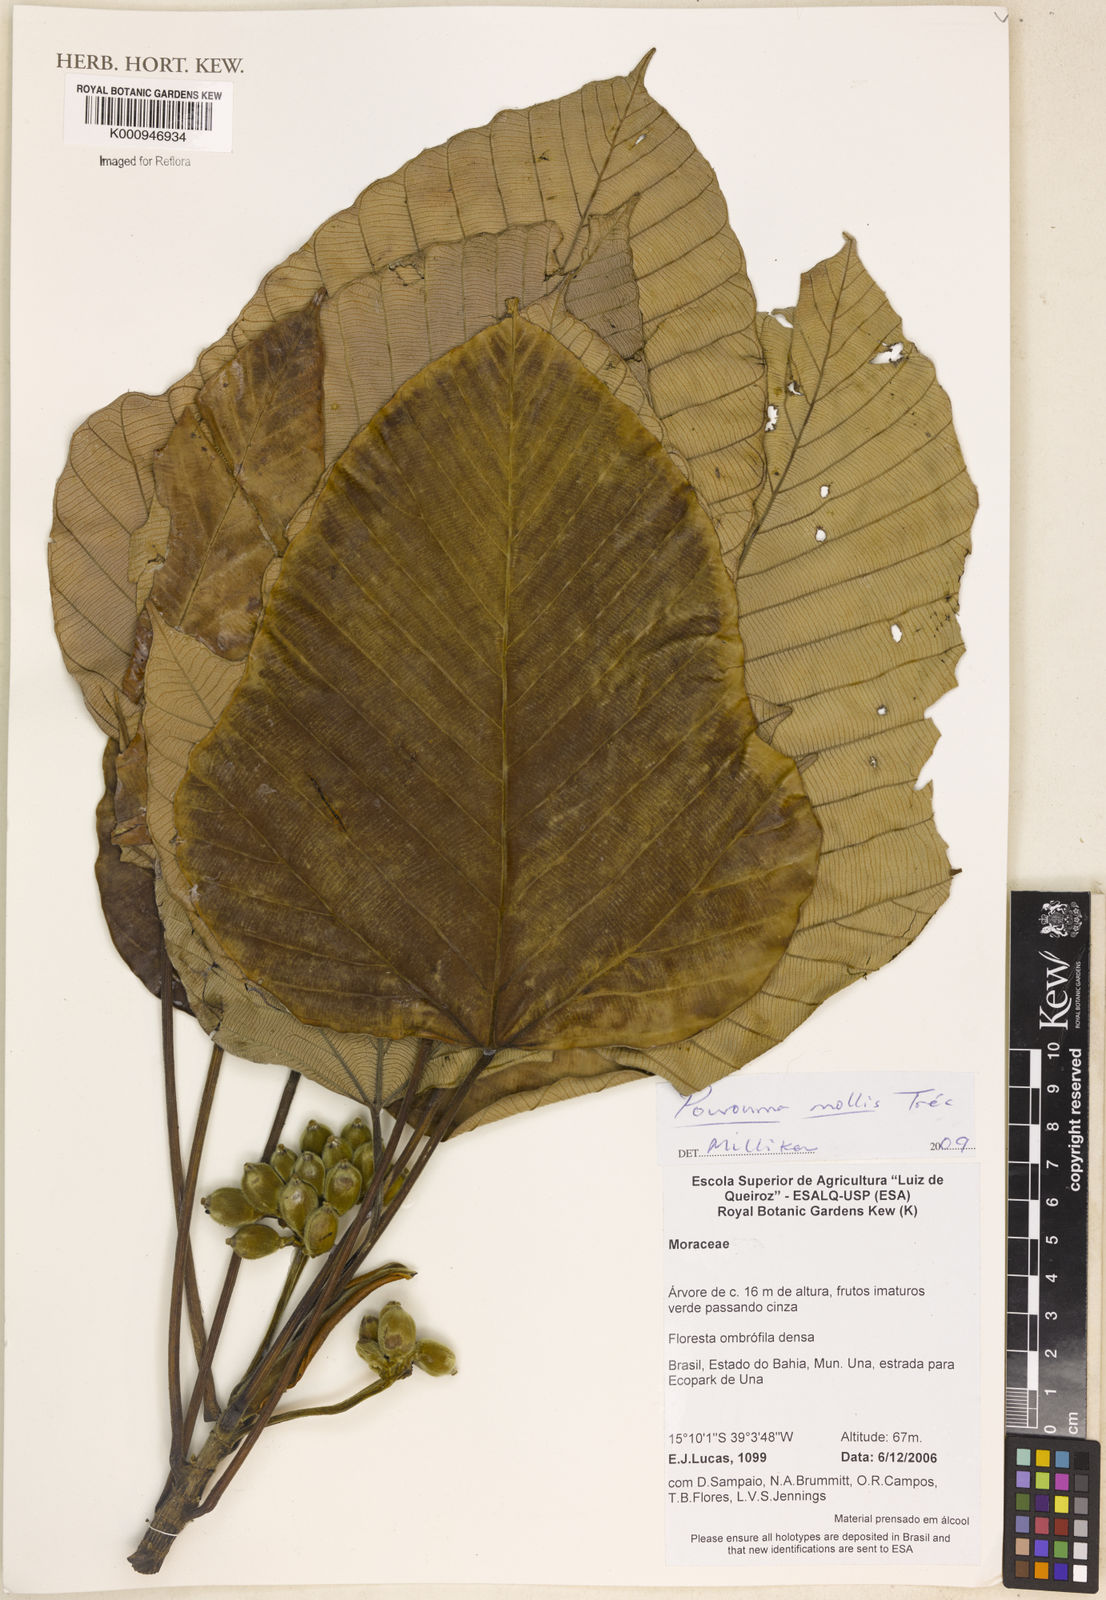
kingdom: Plantae
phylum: Tracheophyta
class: Magnoliopsida
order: Rosales
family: Urticaceae
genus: Pourouma
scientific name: Pourouma
